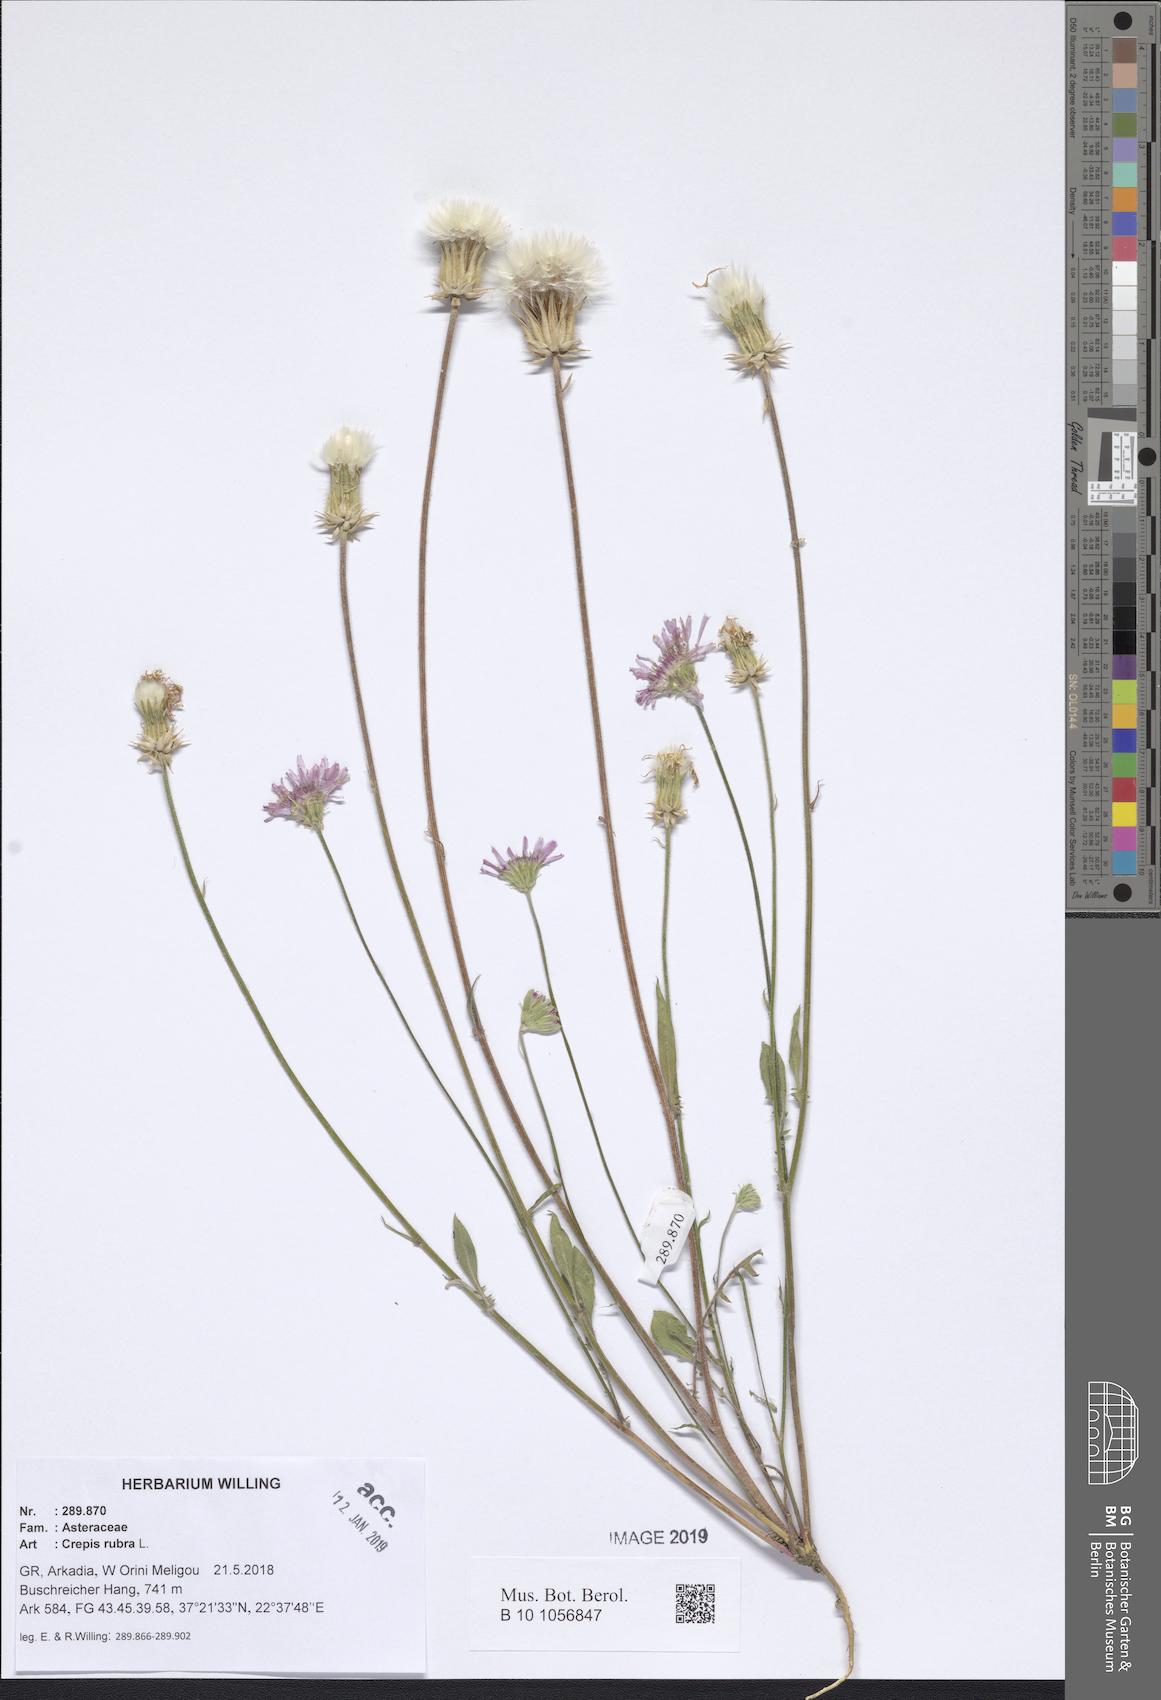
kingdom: Plantae
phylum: Tracheophyta
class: Magnoliopsida
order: Asterales
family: Asteraceae
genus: Crepis
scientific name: Crepis rubra
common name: Pink hawk's-beard
